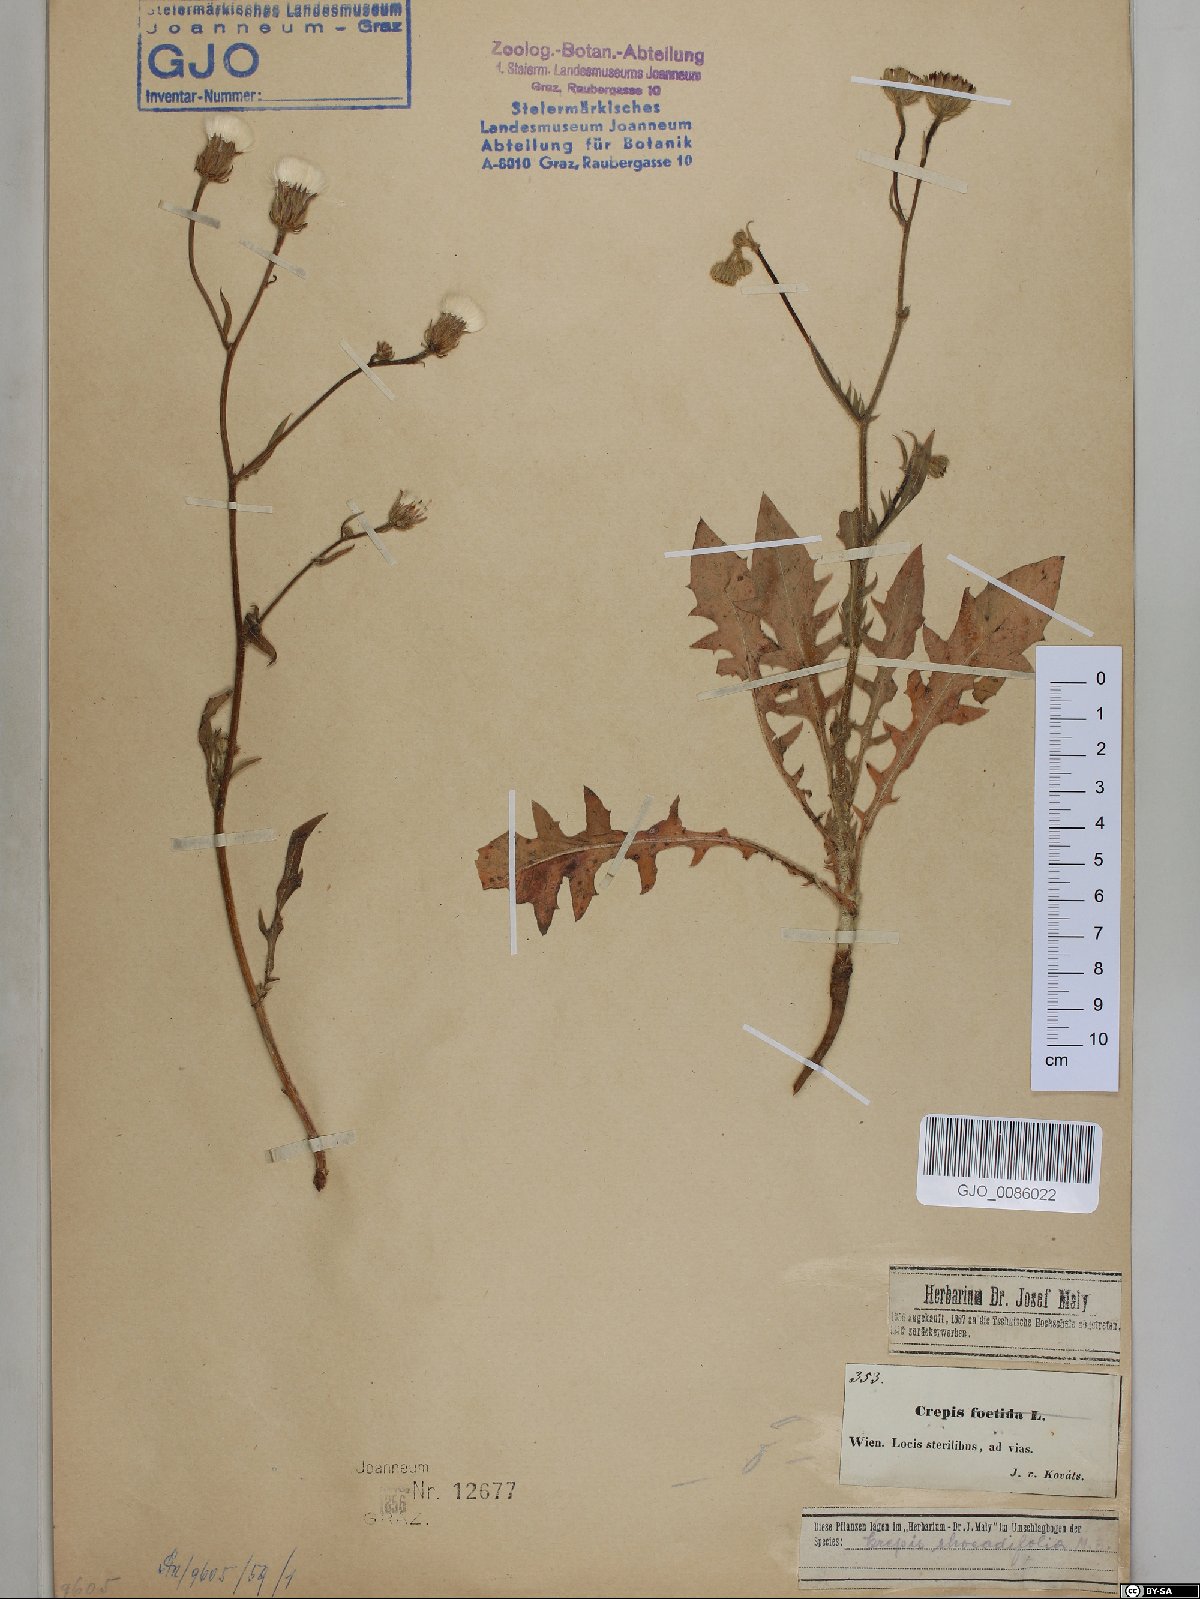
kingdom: Plantae
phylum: Tracheophyta
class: Magnoliopsida
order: Asterales
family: Asteraceae
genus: Crepis
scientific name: Crepis foetida
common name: Stinking hawk's-beard
